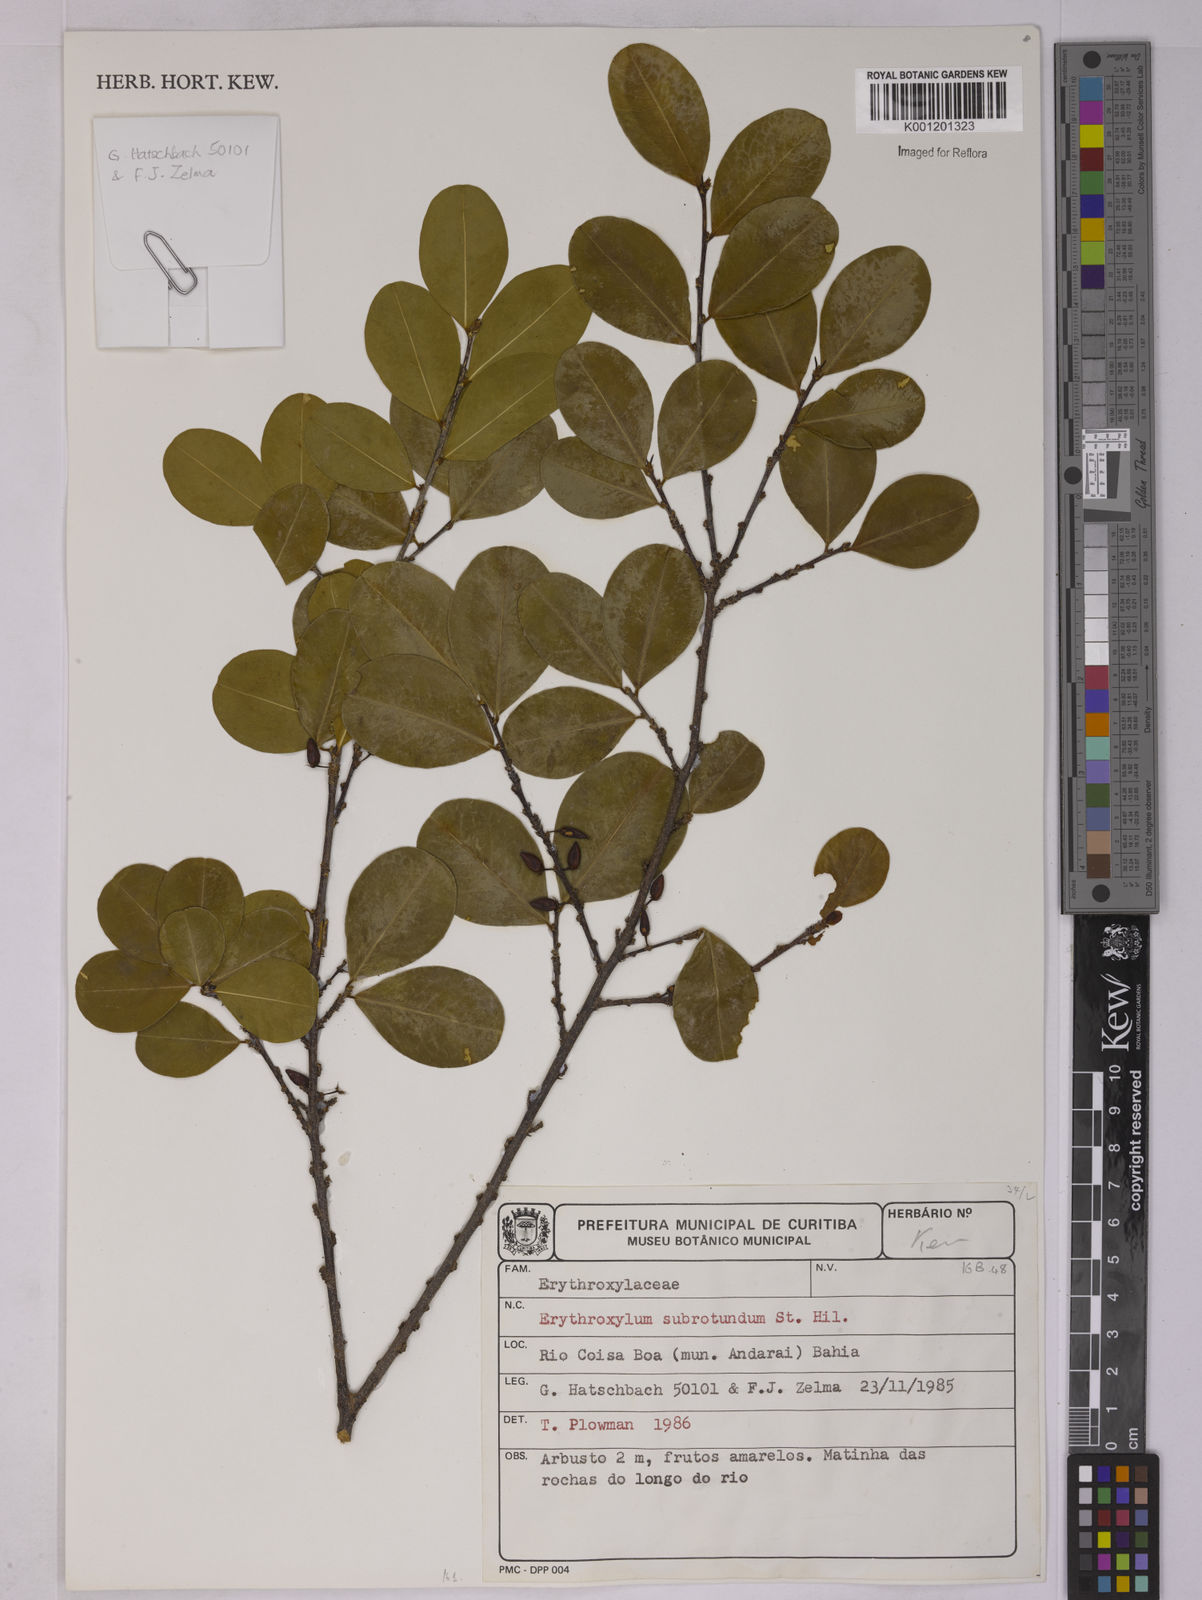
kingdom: Plantae
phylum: Tracheophyta
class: Magnoliopsida
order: Malpighiales
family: Erythroxylaceae
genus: Erythroxylum
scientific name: Erythroxylum subrotundum
